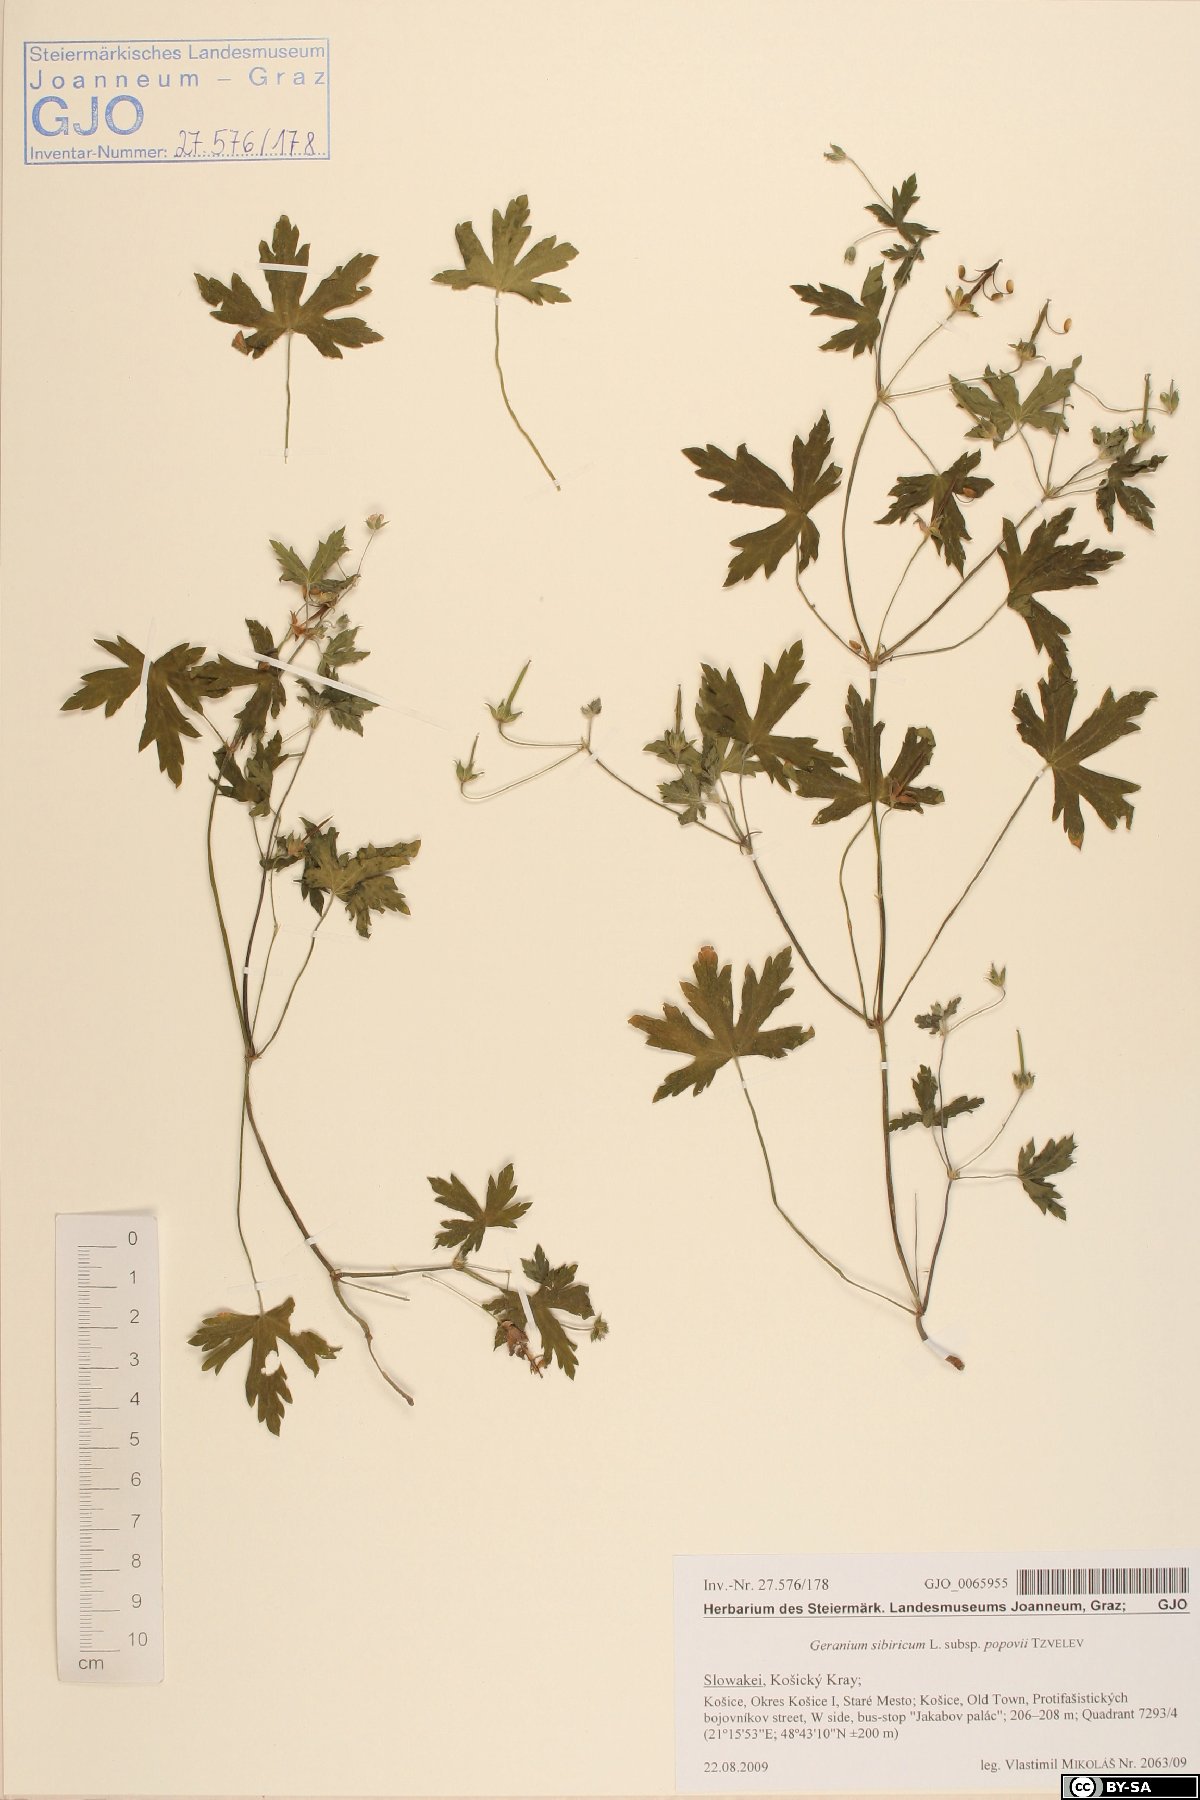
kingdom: Plantae
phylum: Tracheophyta
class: Magnoliopsida
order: Geraniales
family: Geraniaceae
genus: Geranium
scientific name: Geranium sibiricum
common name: Siberian crane's-bill
